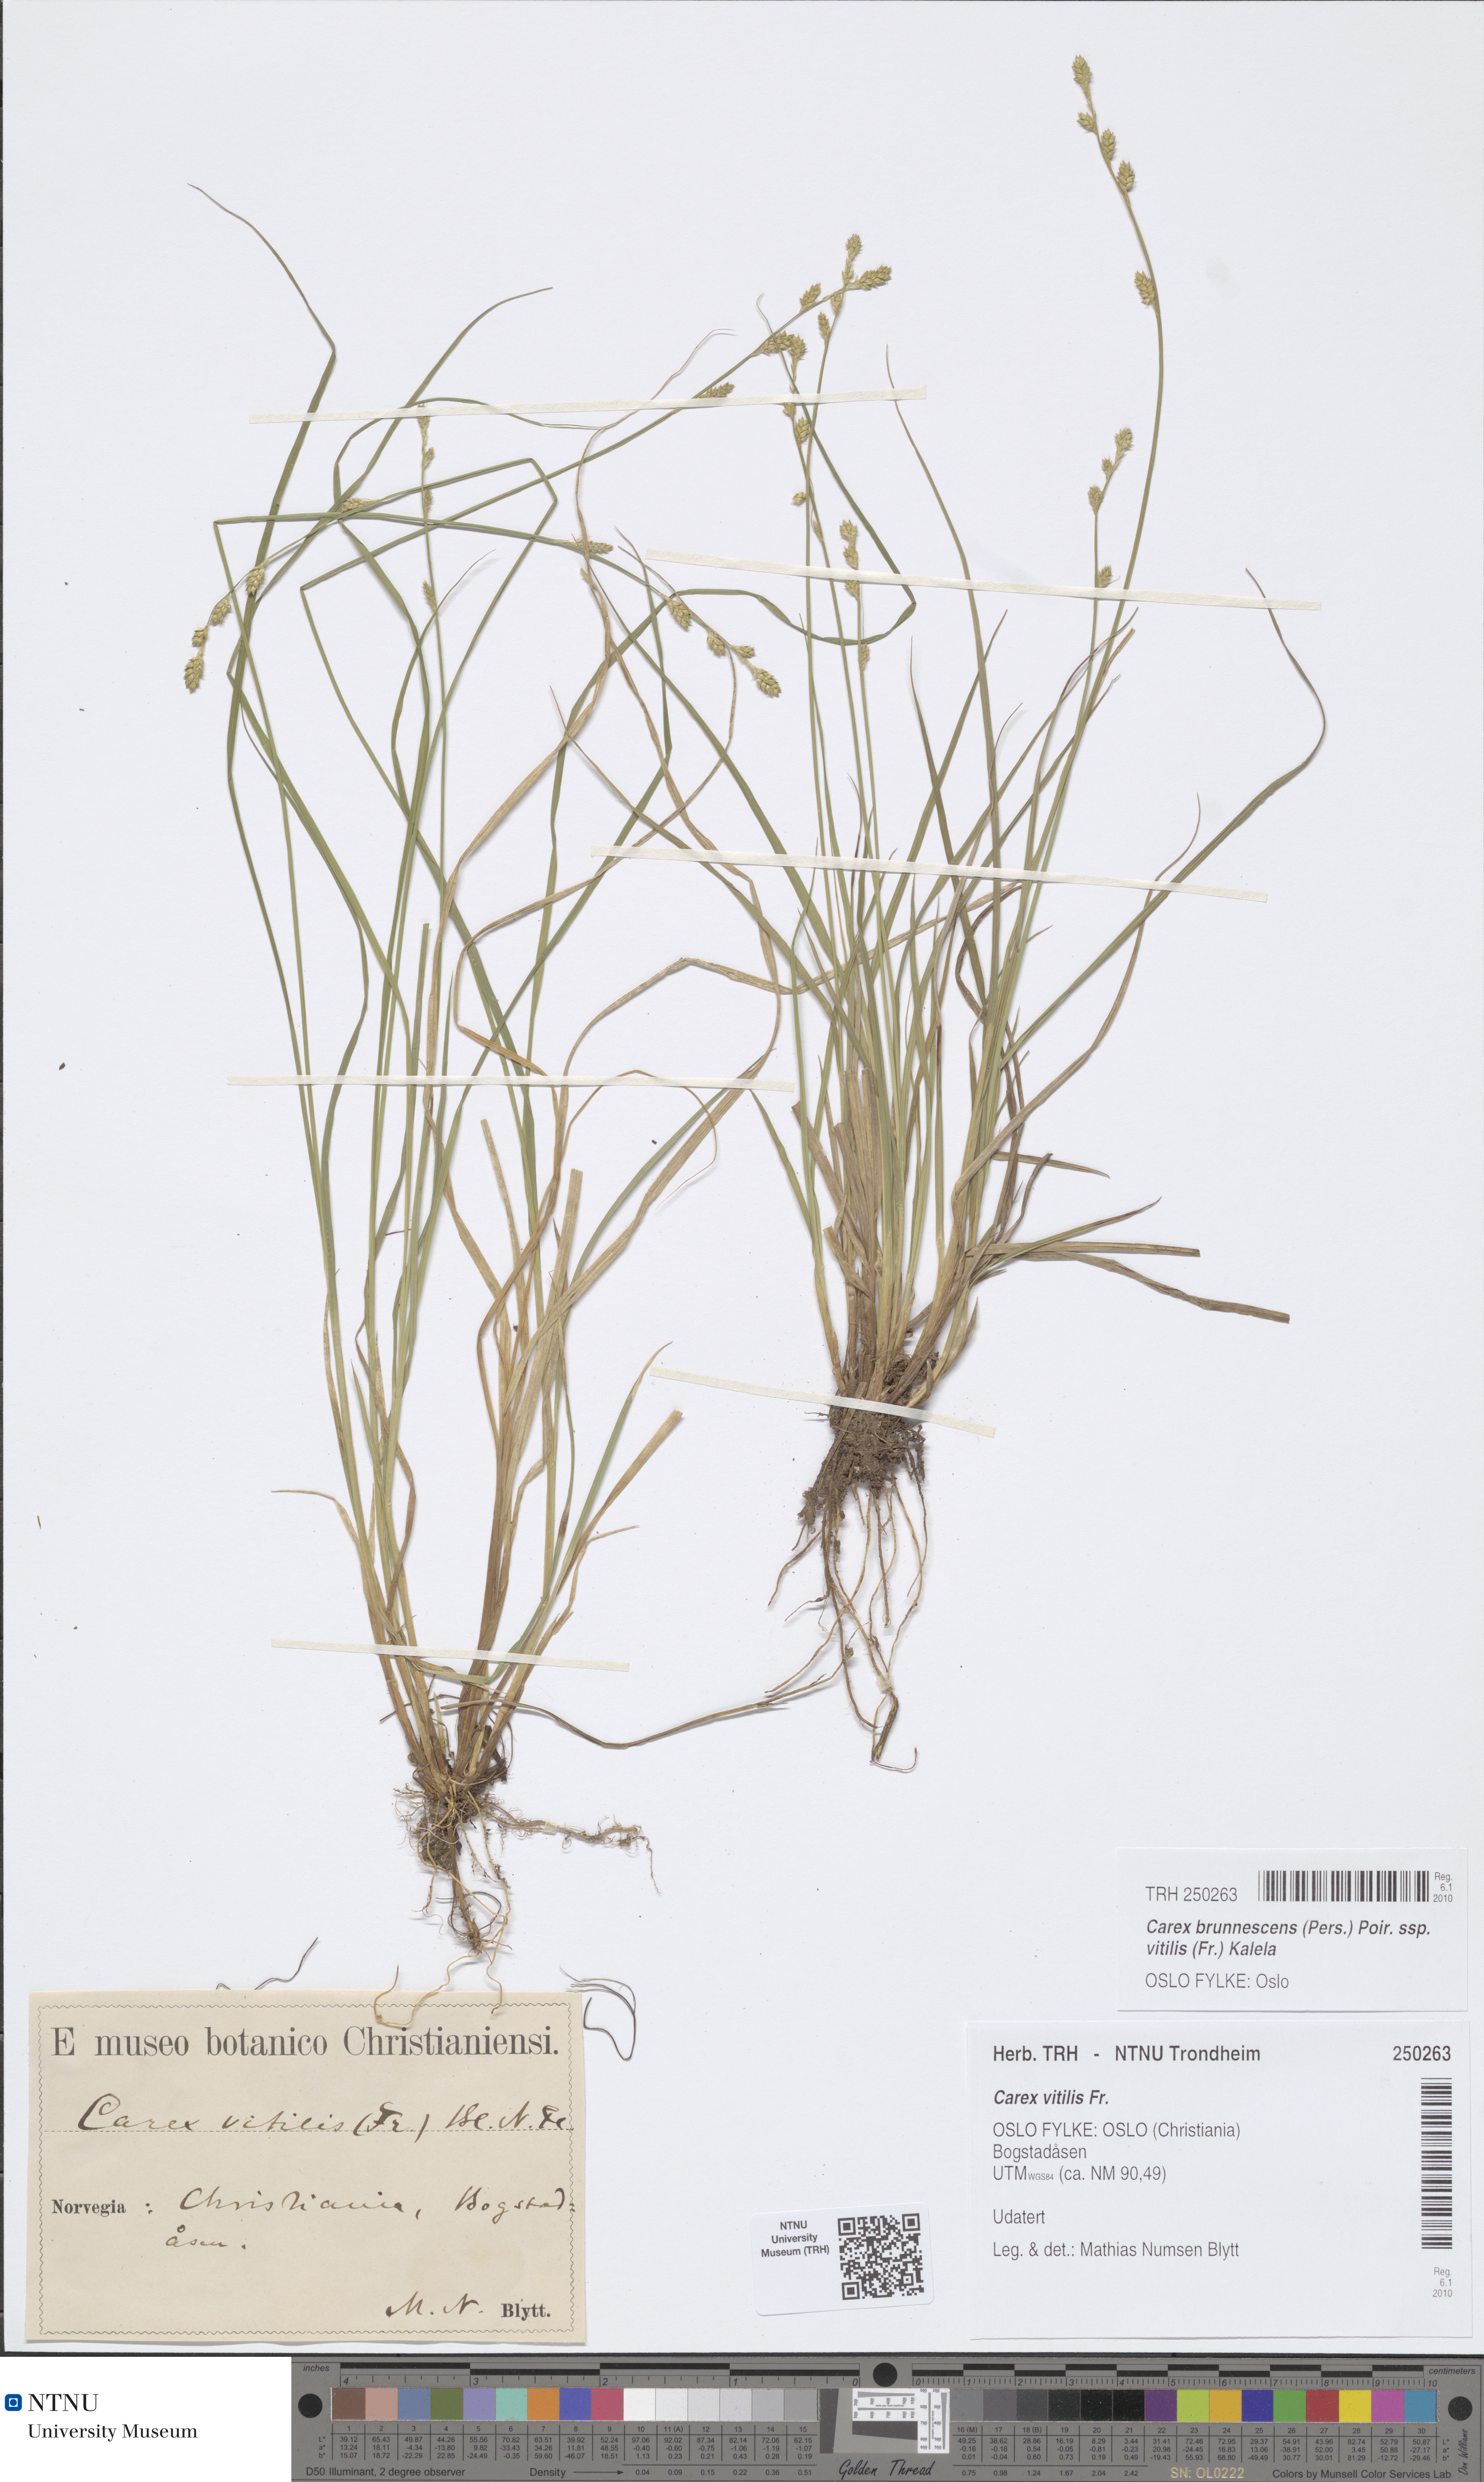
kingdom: Plantae
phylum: Tracheophyta
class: Liliopsida
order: Poales
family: Cyperaceae
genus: Carex
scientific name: Carex brunnescens
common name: Brown sedge
